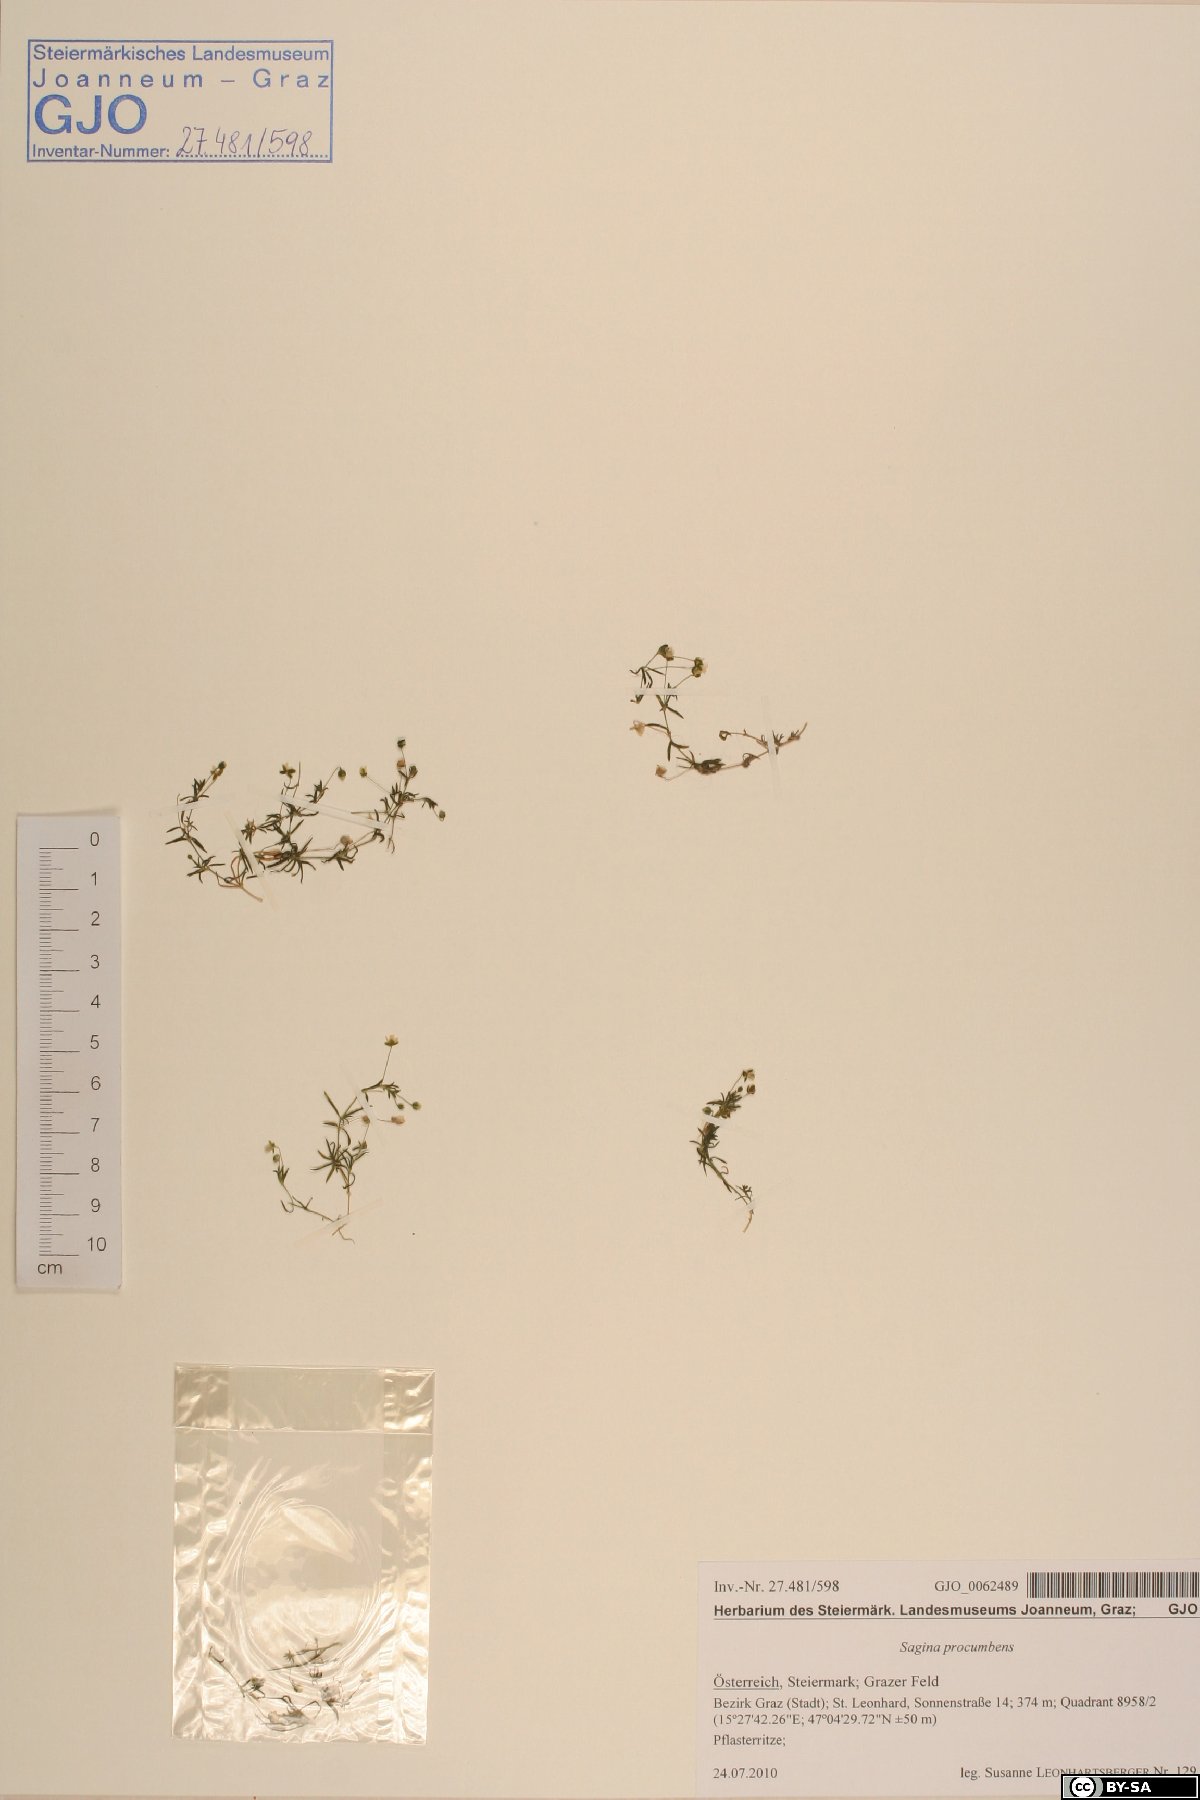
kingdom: Plantae
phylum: Tracheophyta
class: Magnoliopsida
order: Caryophyllales
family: Caryophyllaceae
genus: Sagina
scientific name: Sagina procumbens
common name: Procumbent pearlwort
